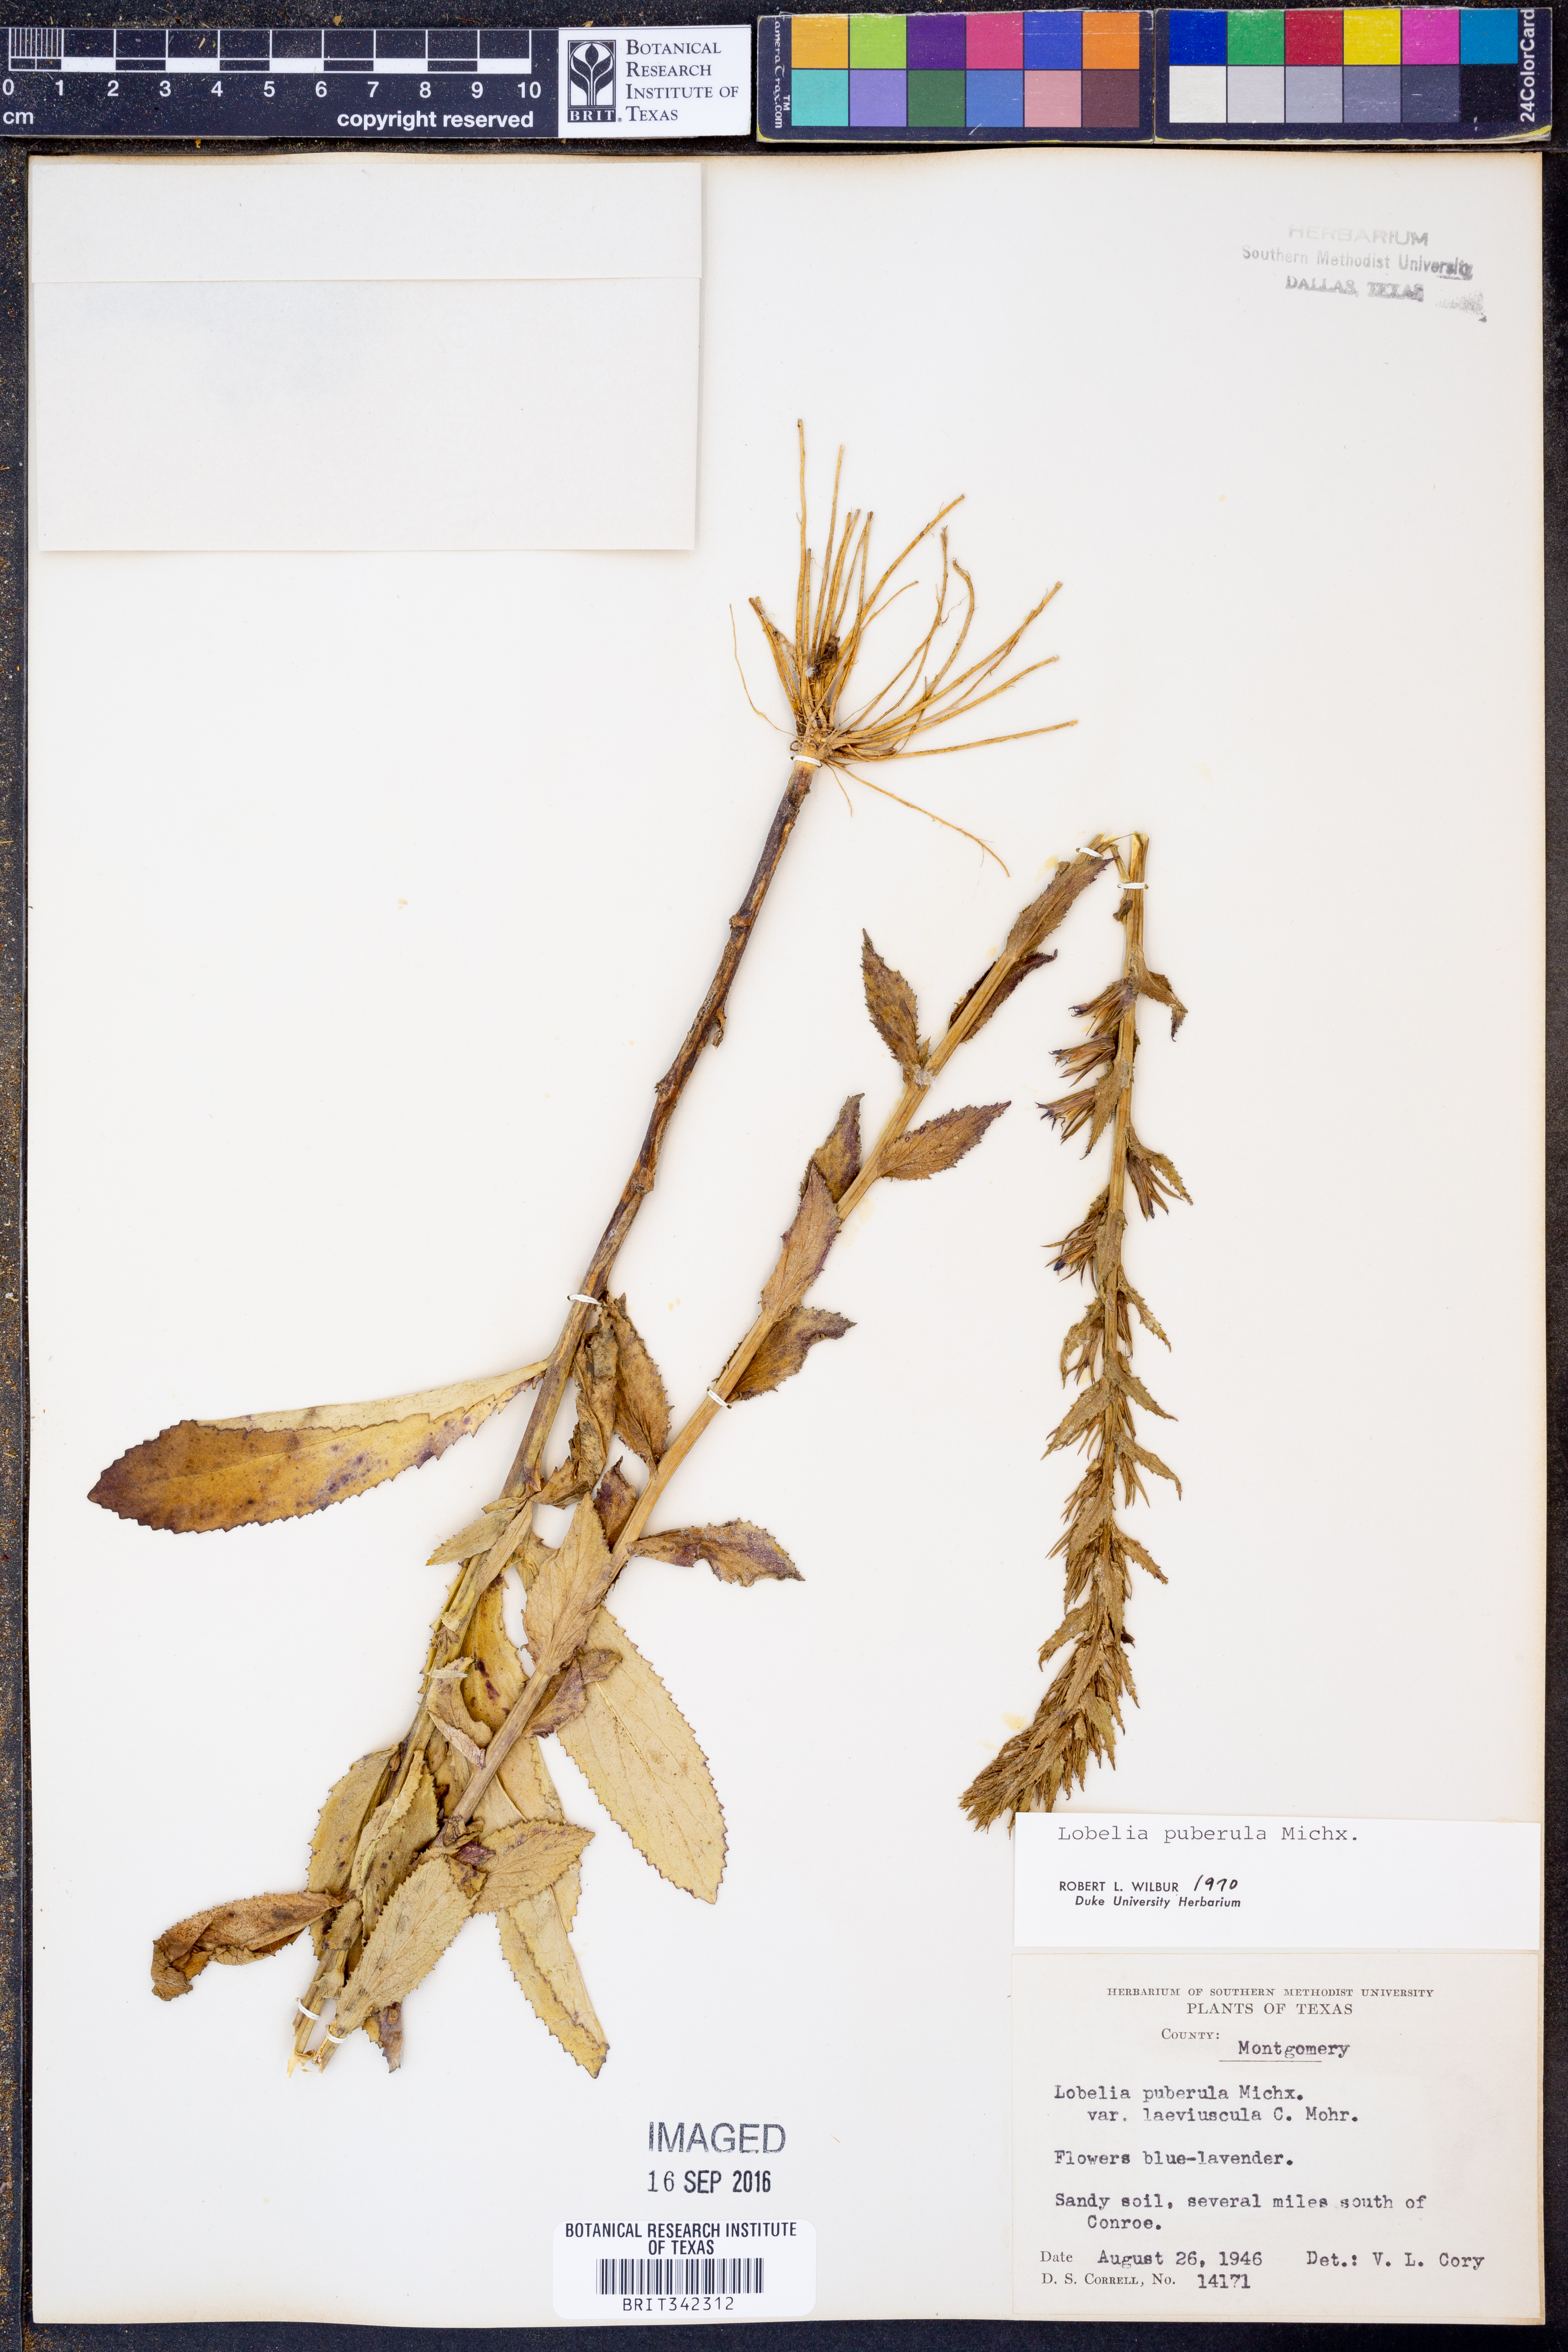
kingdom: Plantae
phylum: Tracheophyta
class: Magnoliopsida
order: Asterales
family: Campanulaceae
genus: Lobelia
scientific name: Lobelia puberula
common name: Purple dewdrop
